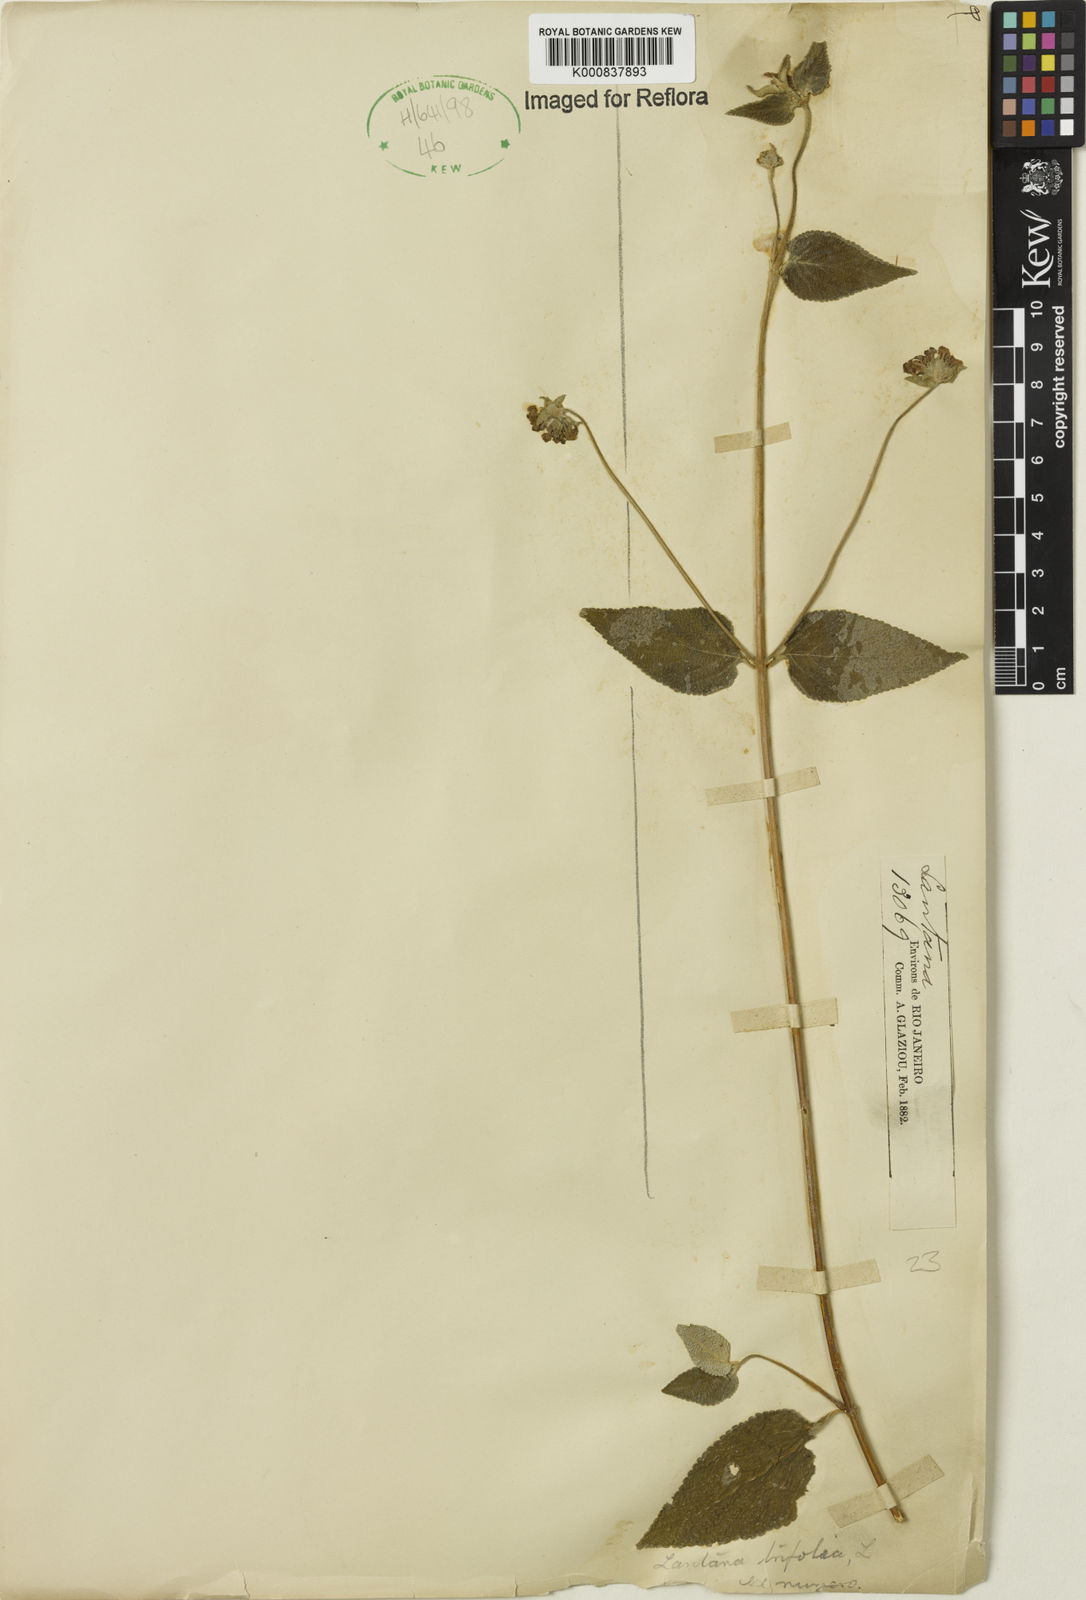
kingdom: Plantae
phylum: Tracheophyta
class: Magnoliopsida
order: Lamiales
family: Verbenaceae
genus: Lantana
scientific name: Lantana canescens
